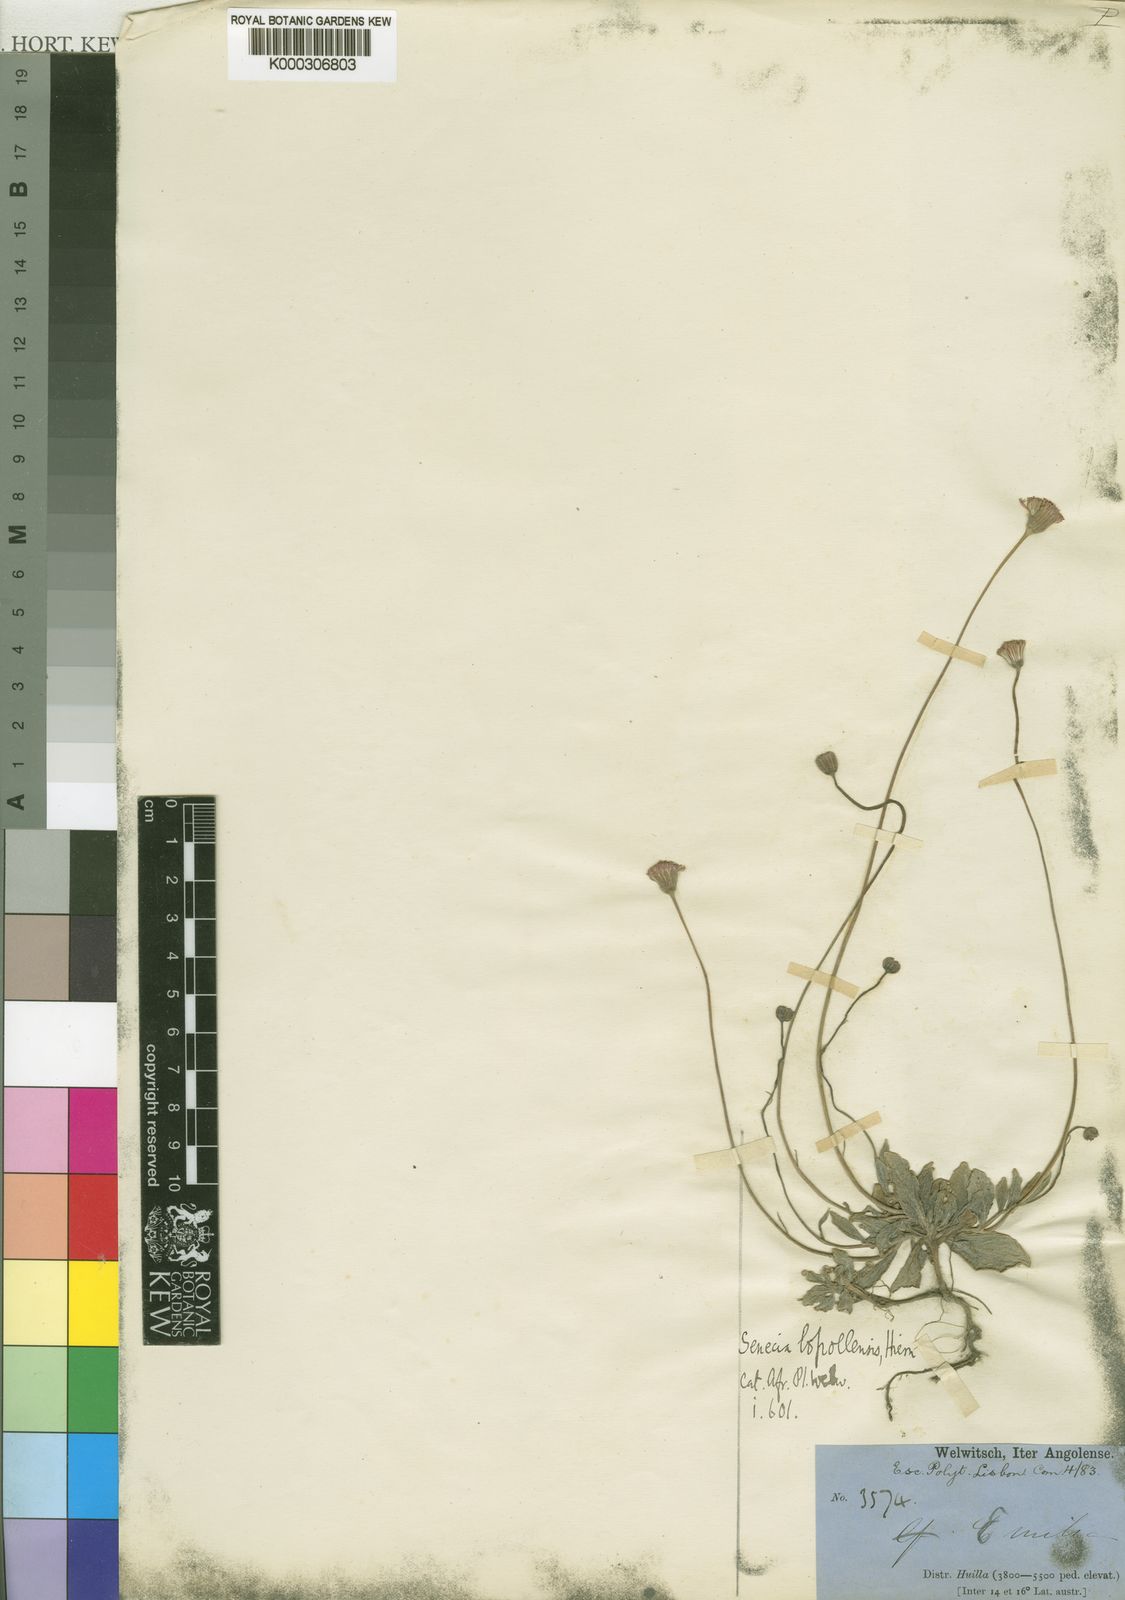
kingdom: Plantae
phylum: Tracheophyta
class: Magnoliopsida
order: Asterales
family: Asteraceae
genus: Emilia
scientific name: Emilia lopollensis
